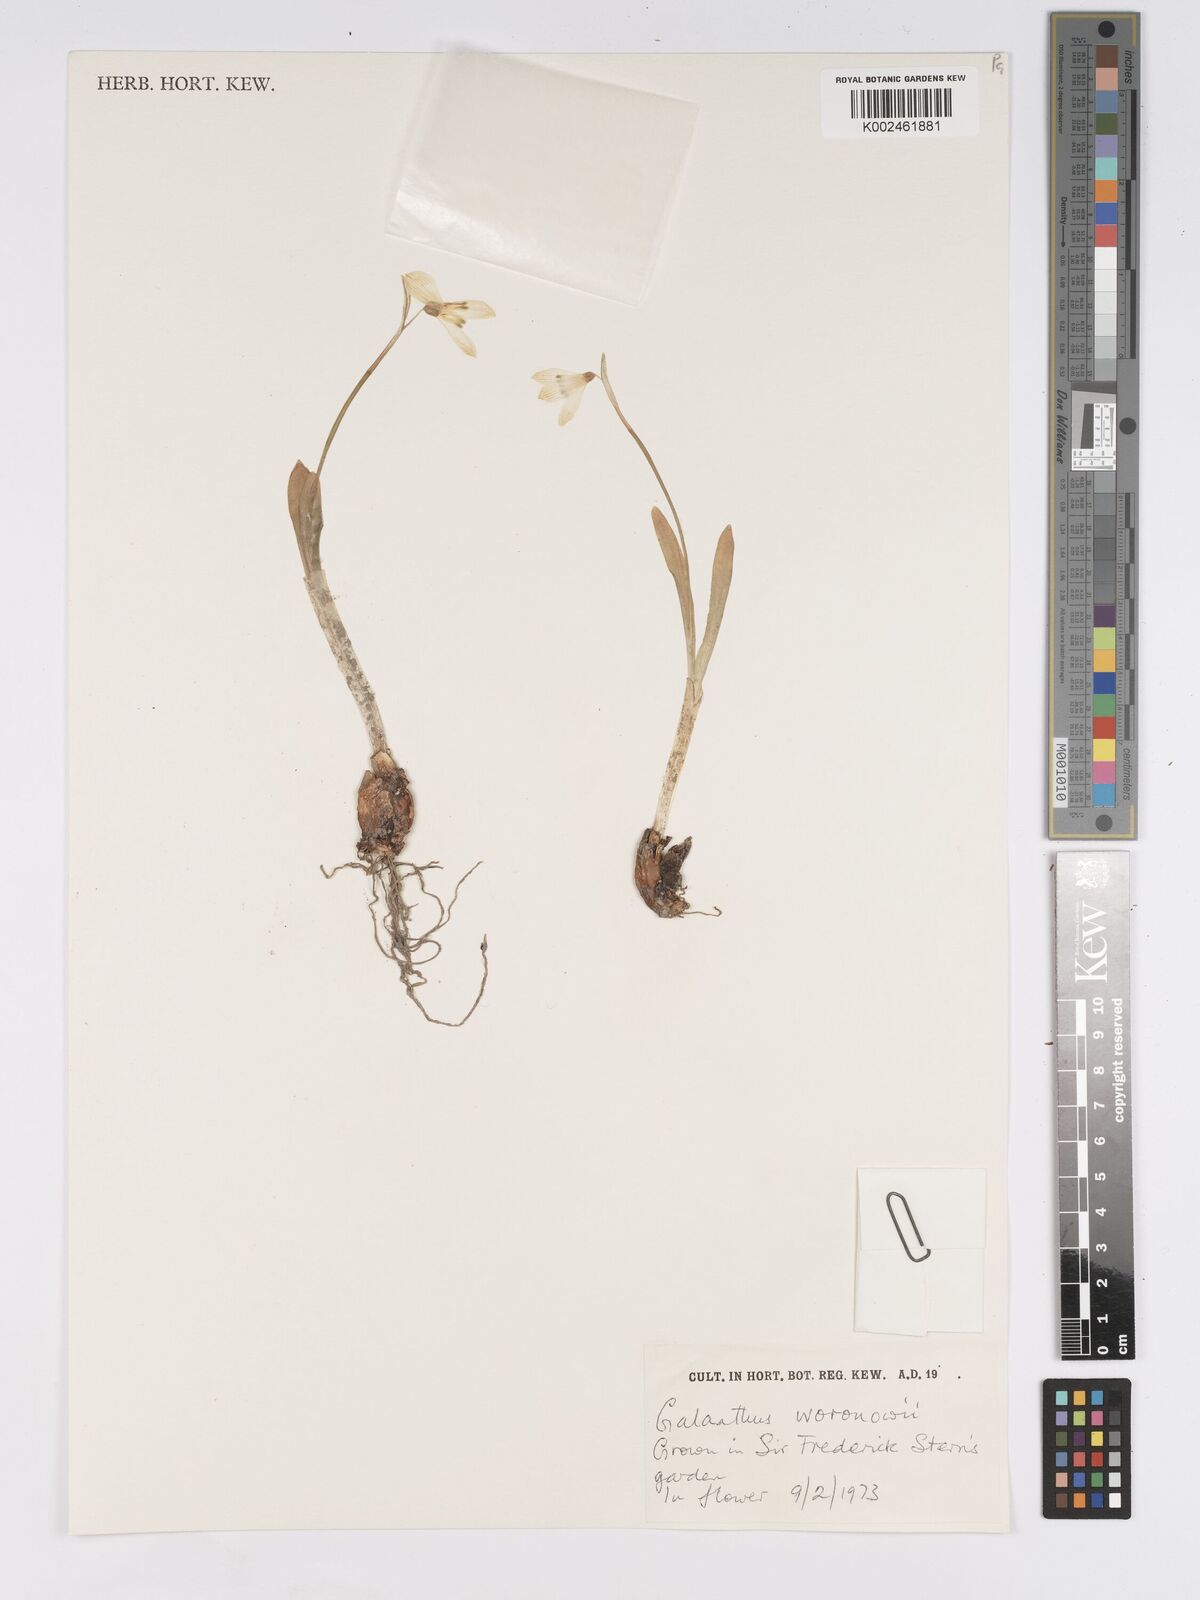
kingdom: Plantae
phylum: Tracheophyta
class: Liliopsida
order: Asparagales
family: Amaryllidaceae
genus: Galanthus
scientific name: Galanthus woronowii
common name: Green snowdrop
